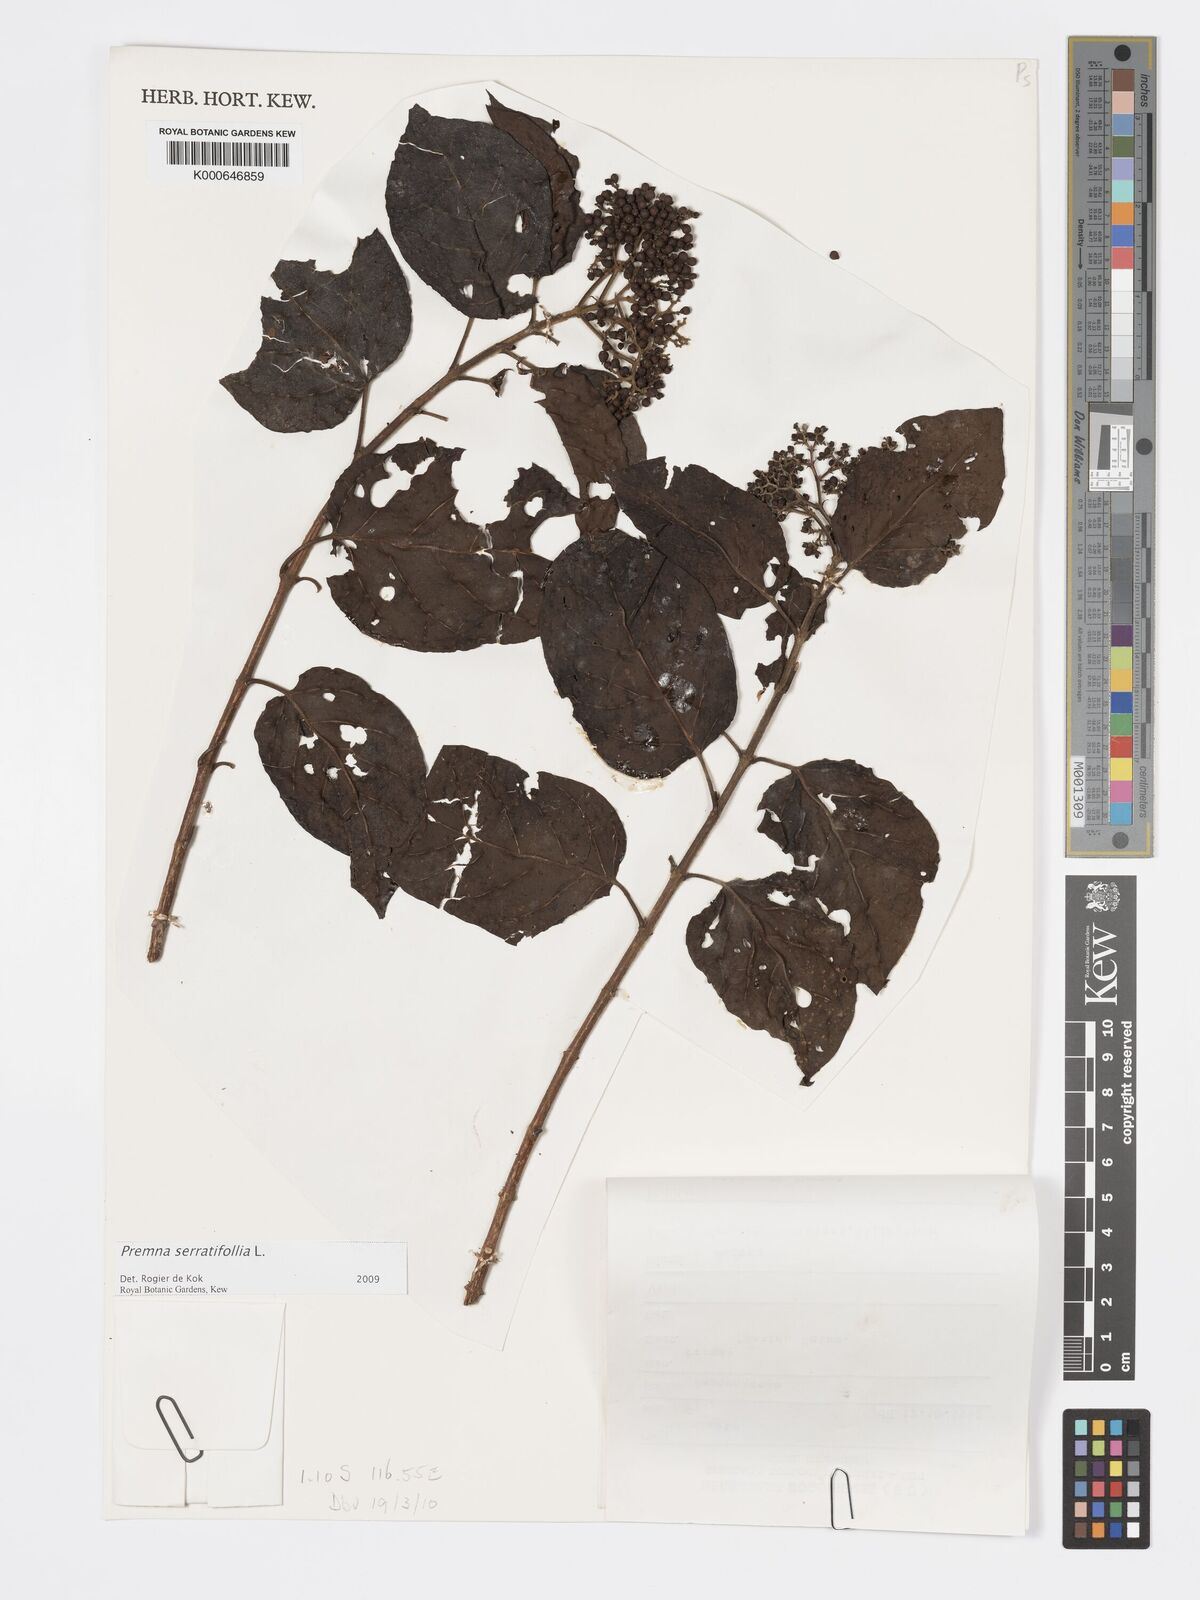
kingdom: Plantae
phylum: Tracheophyta
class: Magnoliopsida
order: Lamiales
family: Lamiaceae
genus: Premna
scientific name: Premna serratifolia
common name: Bastard guelder
